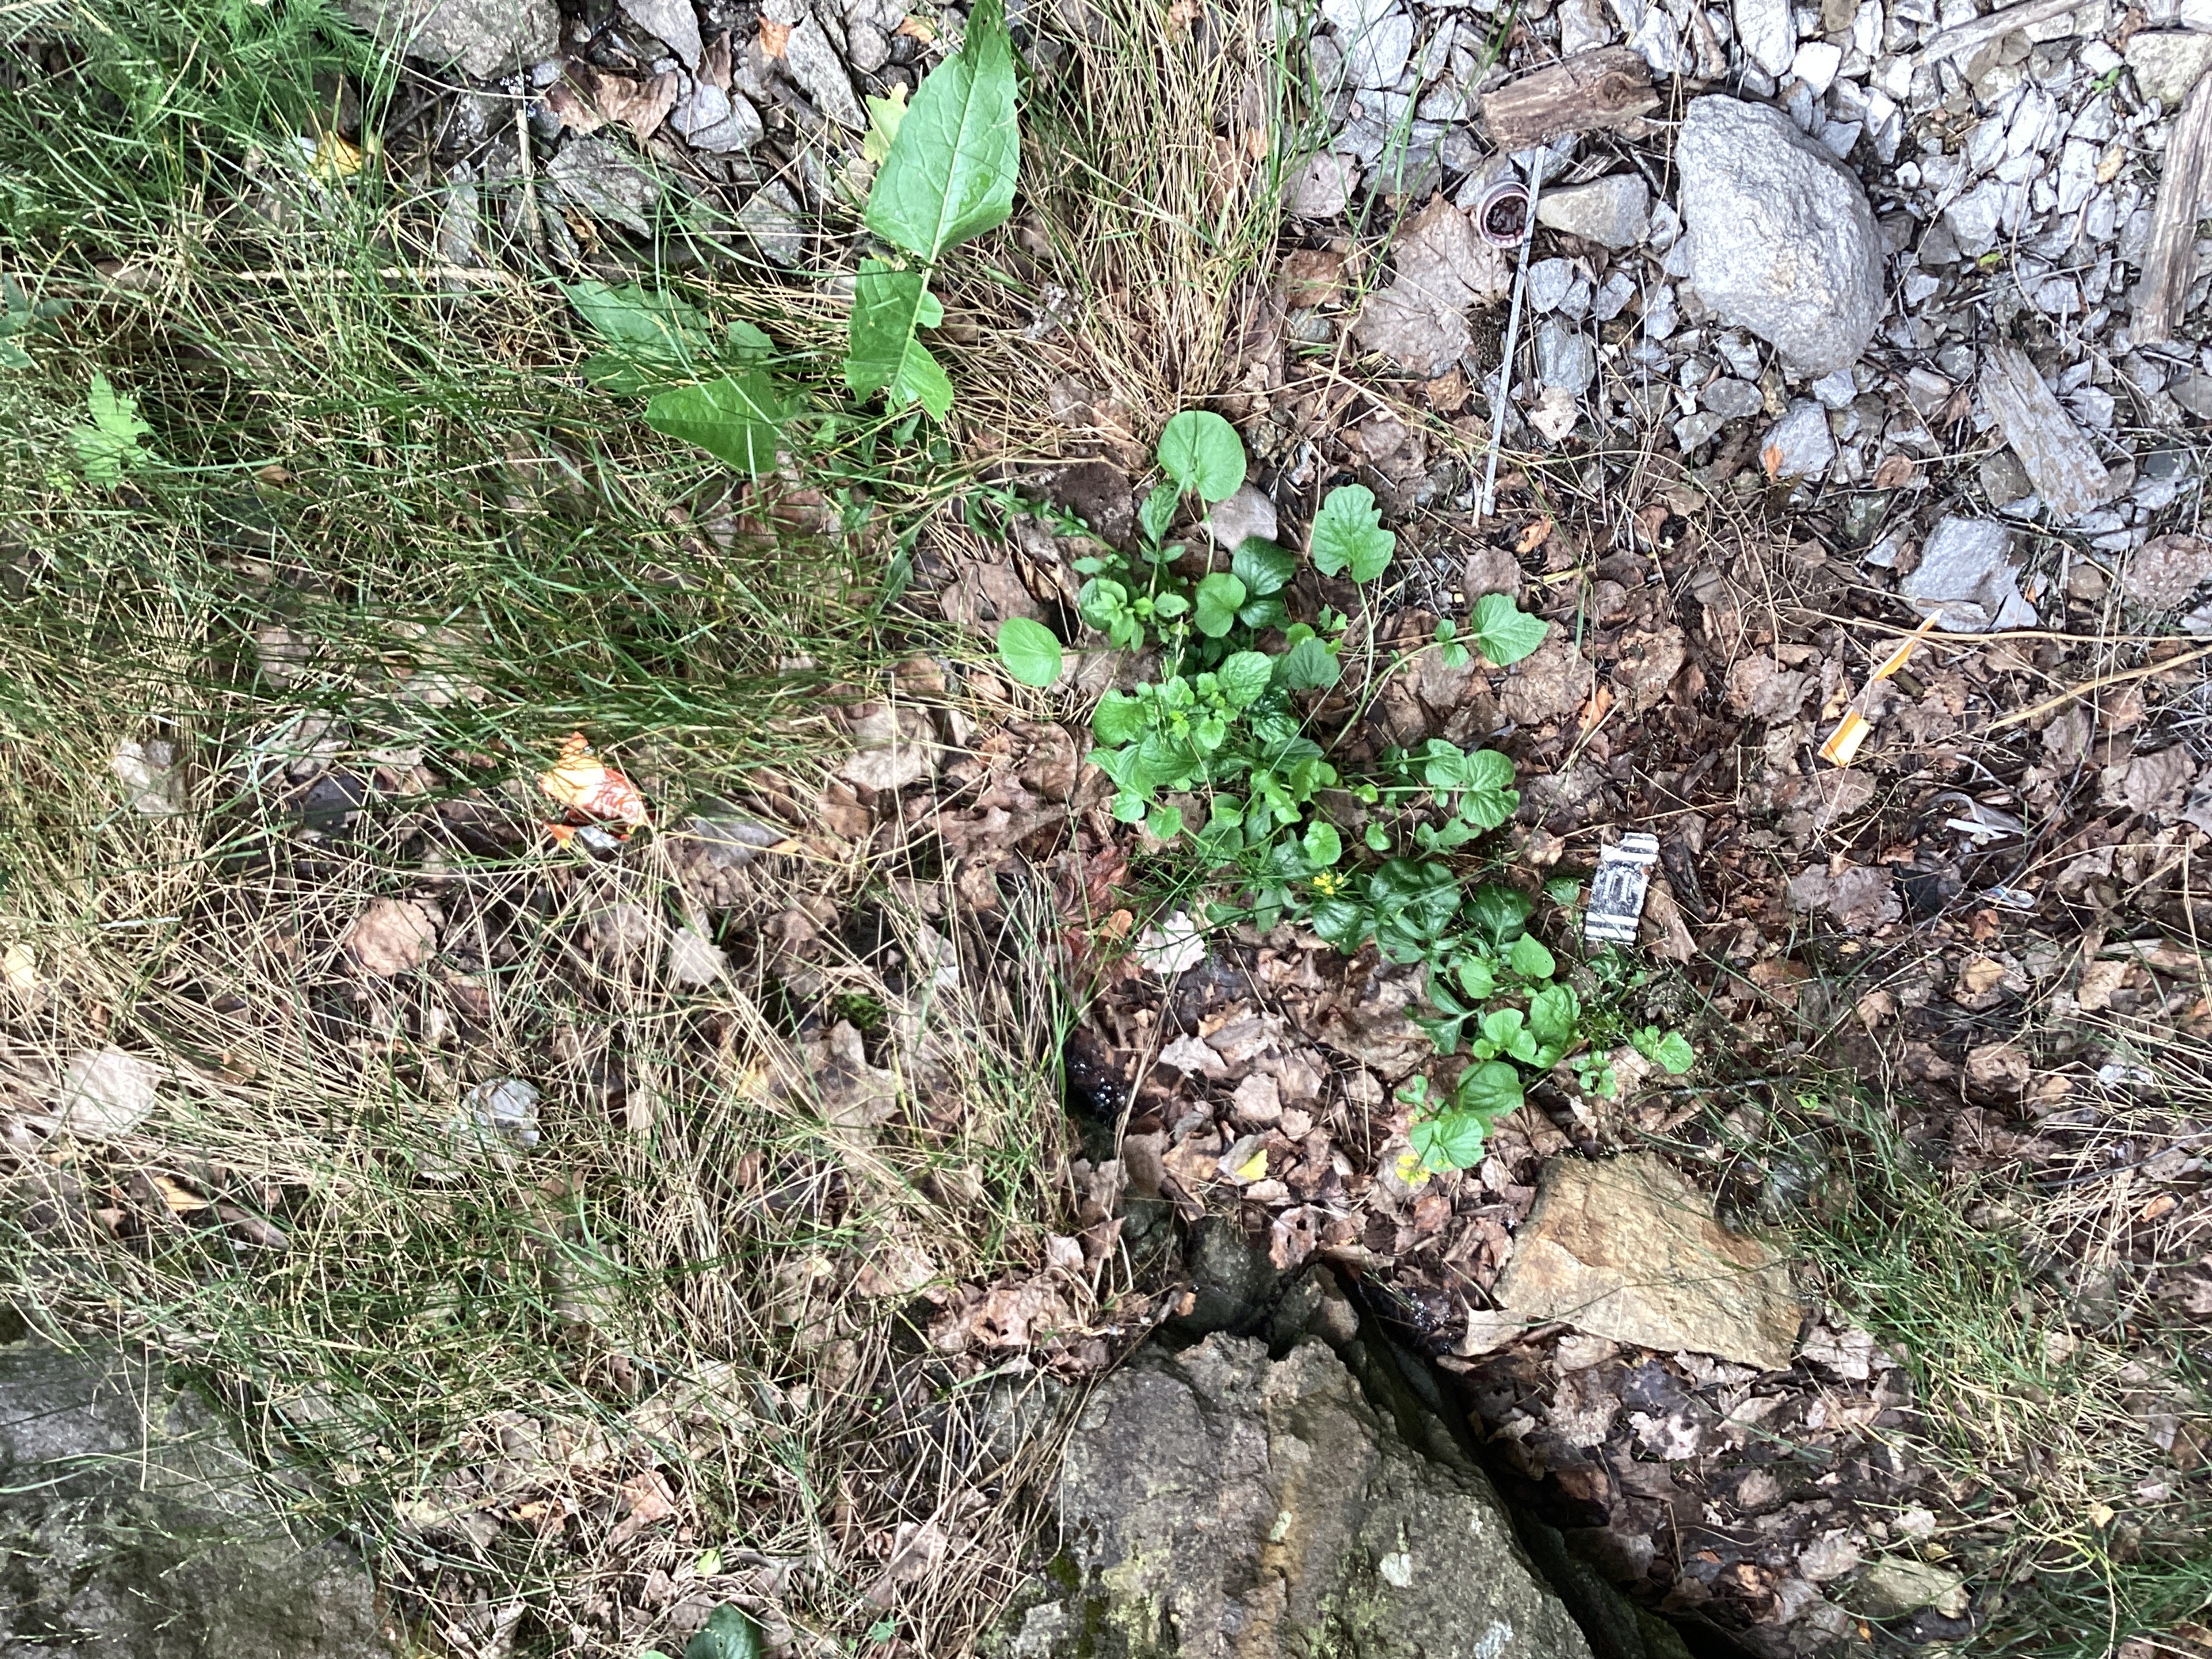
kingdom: Plantae
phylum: Tracheophyta
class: Magnoliopsida
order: Brassicales
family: Brassicaceae
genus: Barbarea
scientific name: Barbarea vulgaris
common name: vinterkarse
